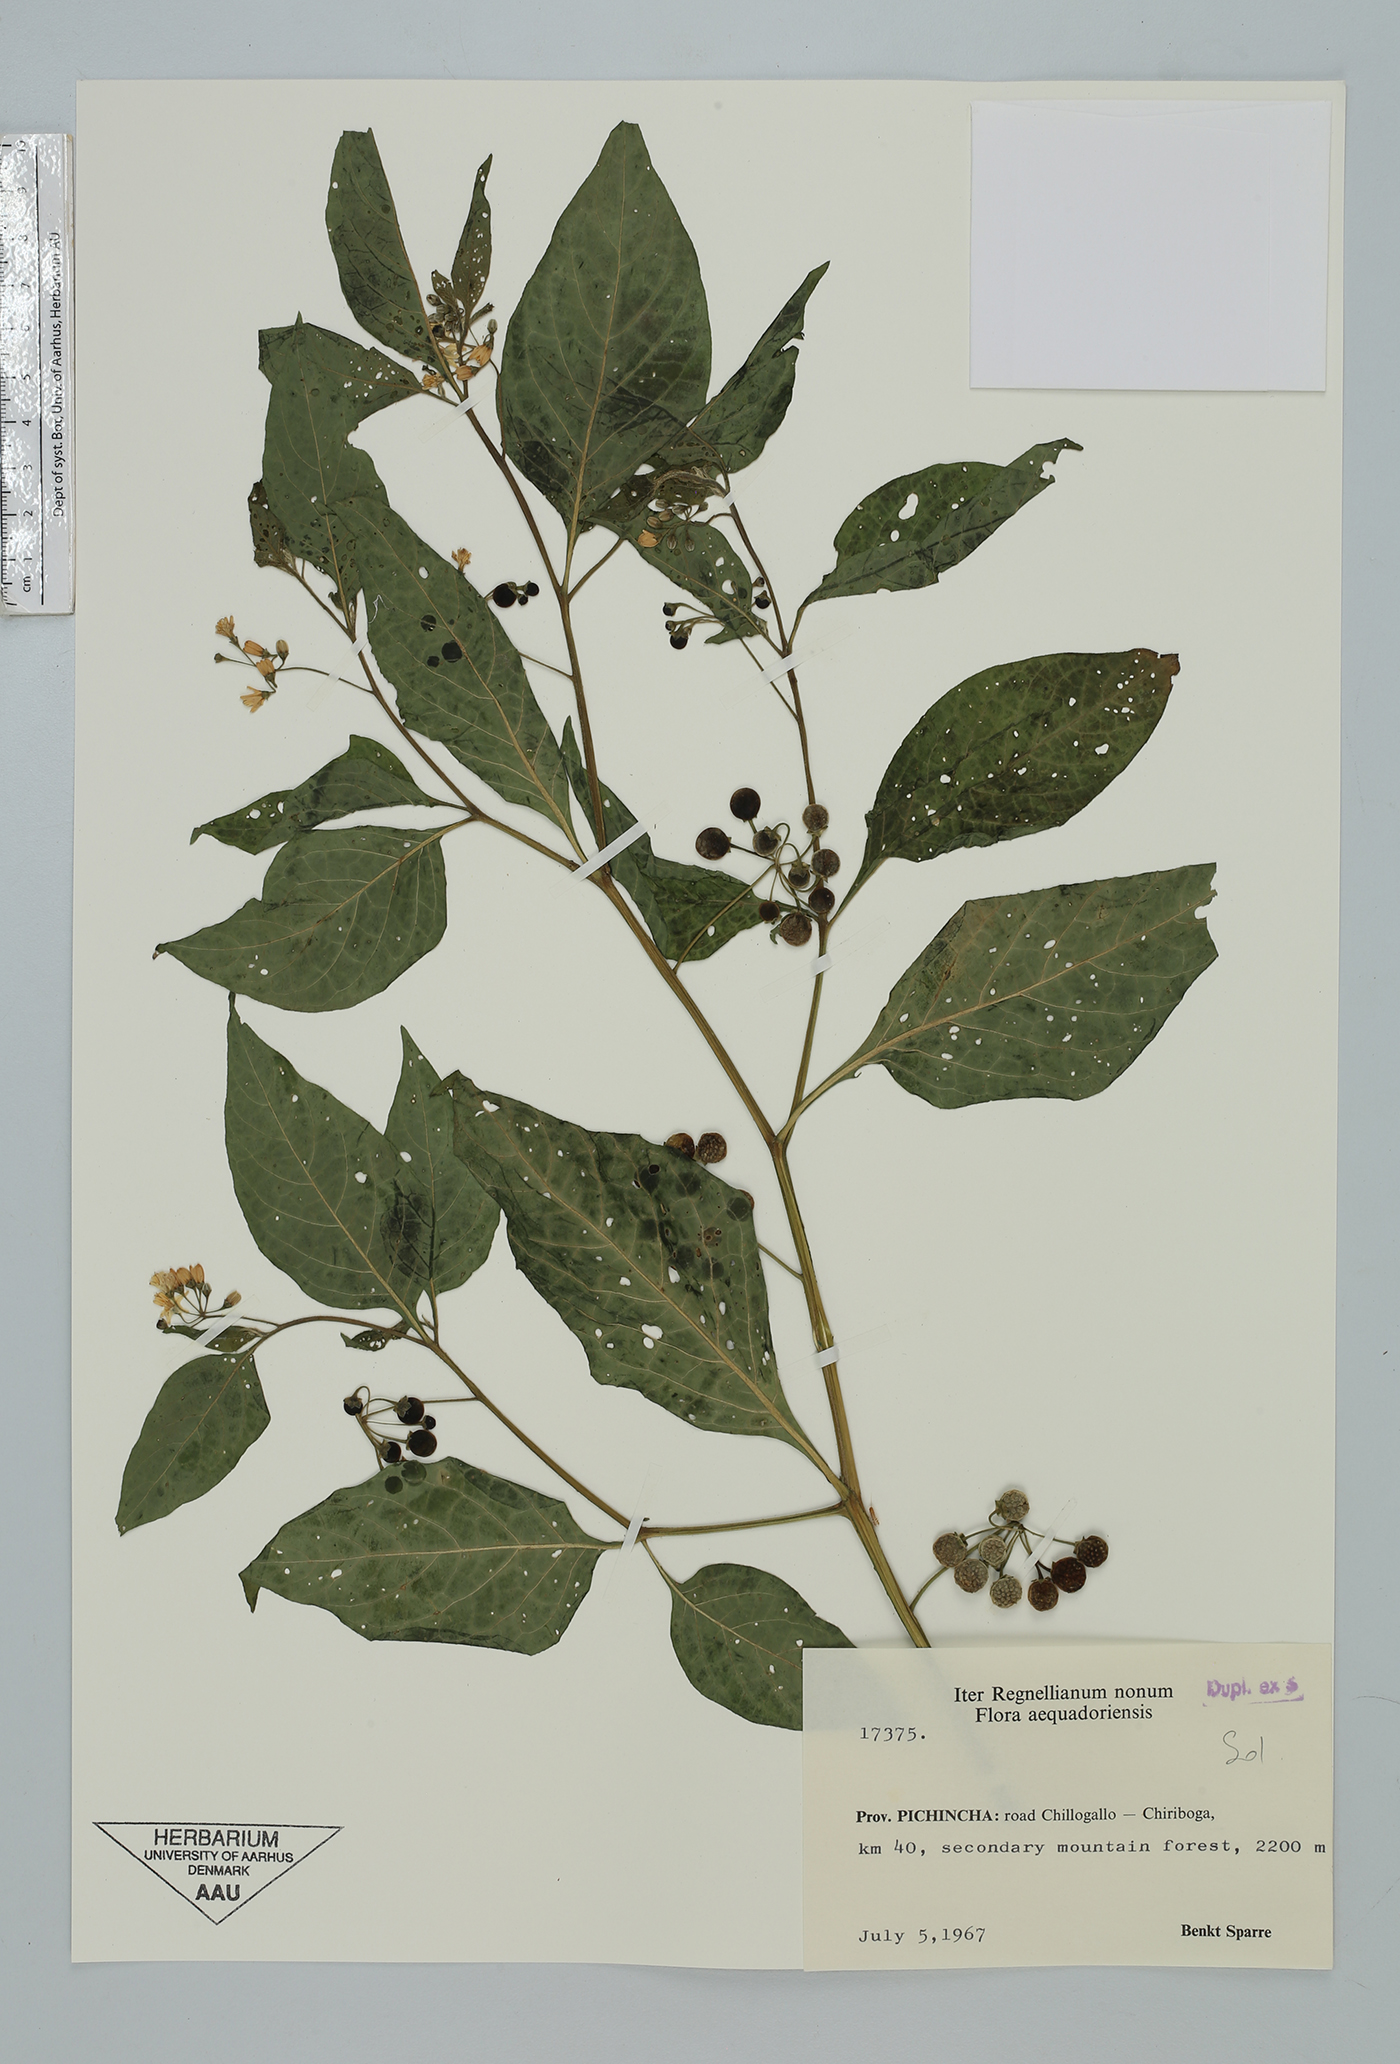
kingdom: Plantae
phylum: Tracheophyta
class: Magnoliopsida
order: Solanales
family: Solanaceae
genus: Solanum
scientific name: Solanum macrotonum
